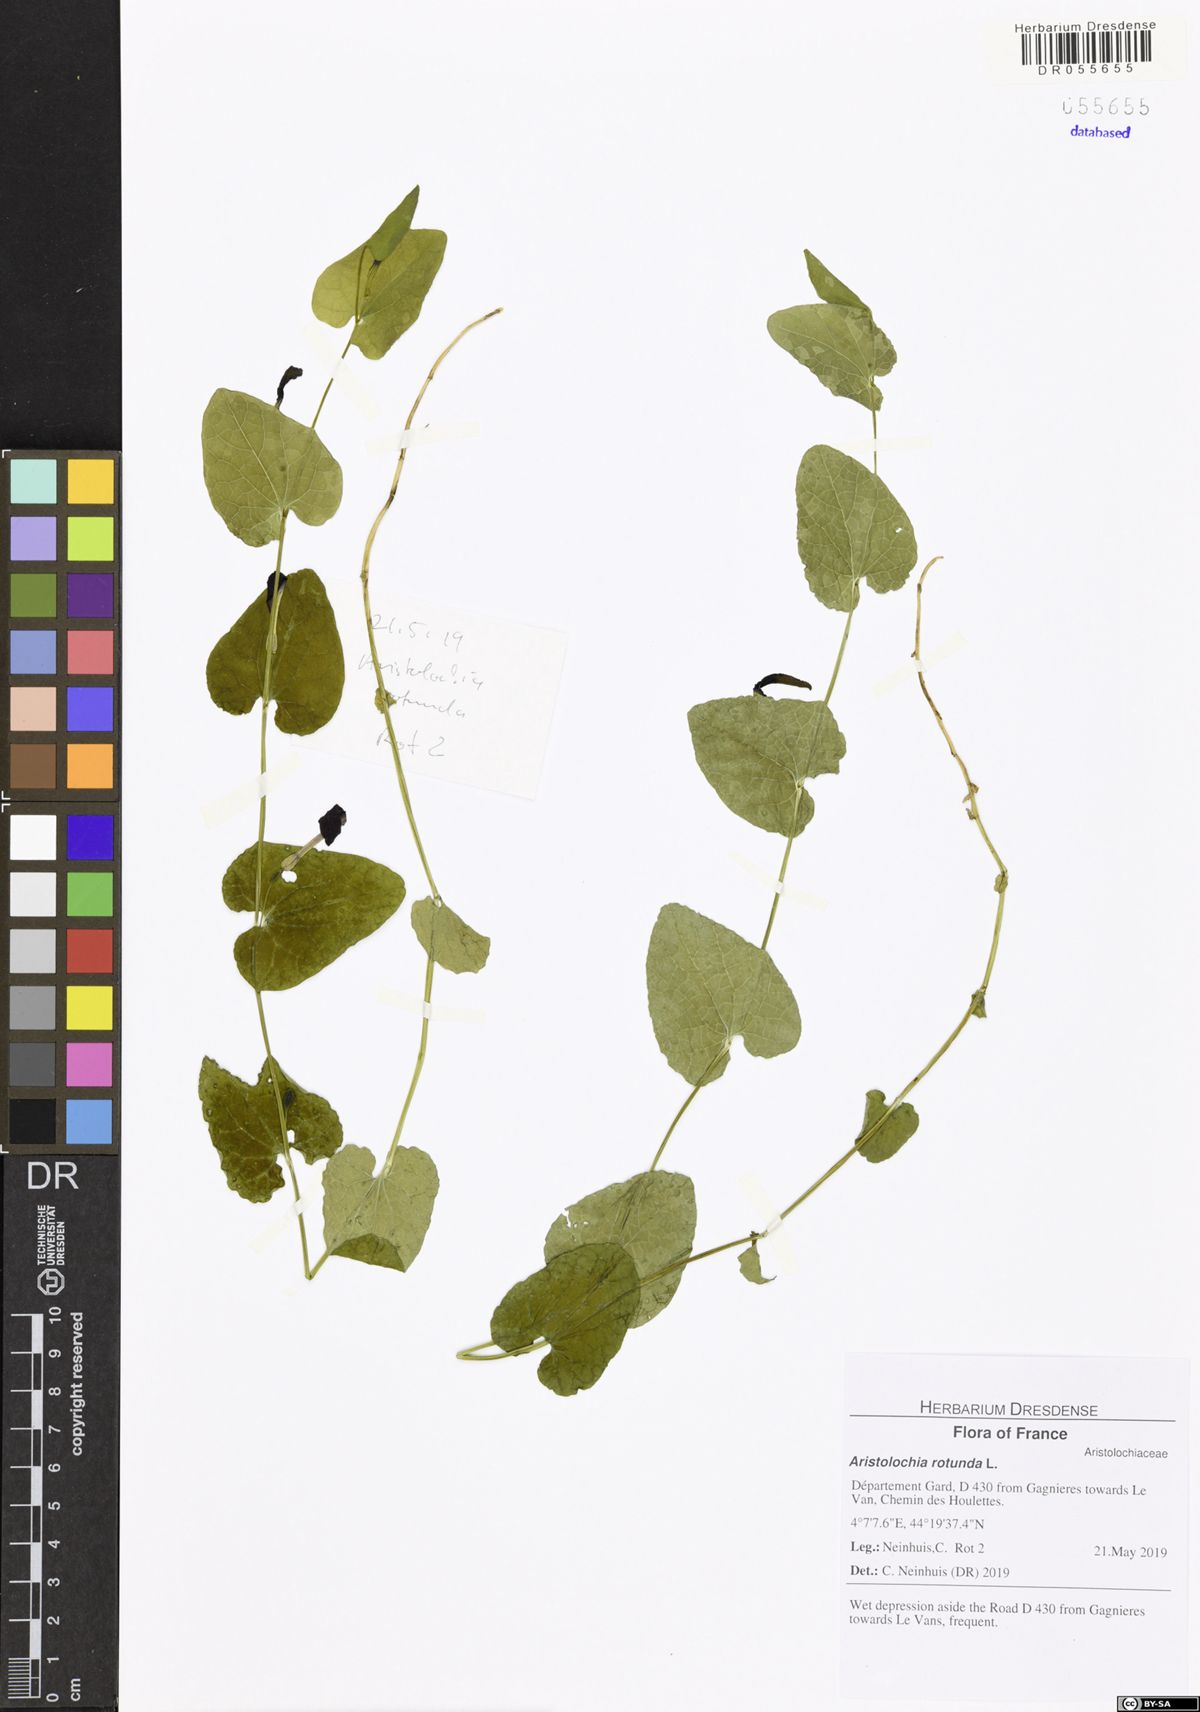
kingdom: Plantae
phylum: Tracheophyta
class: Magnoliopsida
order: Piperales
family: Aristolochiaceae
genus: Aristolochia
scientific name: Aristolochia rotunda
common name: Smearwort
